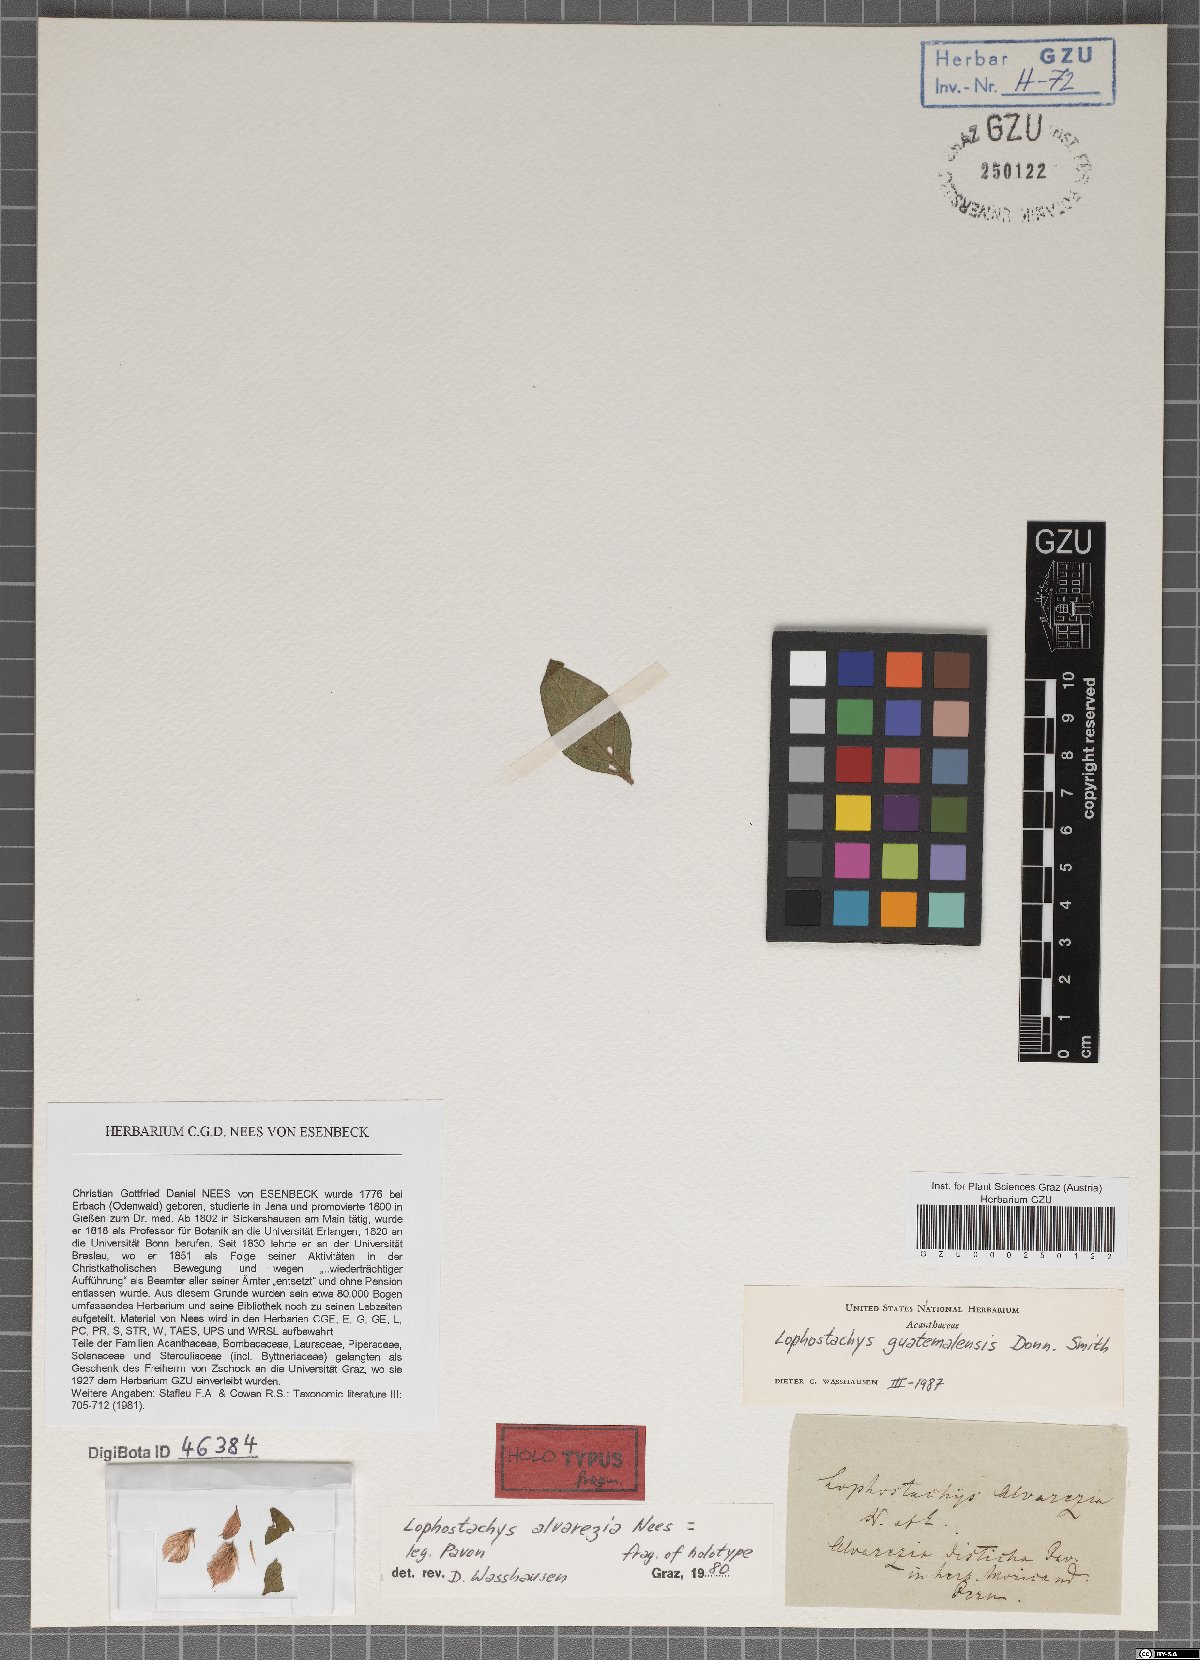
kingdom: Plantae
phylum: Tracheophyta
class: Magnoliopsida
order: Lamiales
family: Acanthaceae
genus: Lepidagathis
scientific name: Lepidagathis alvarezia
